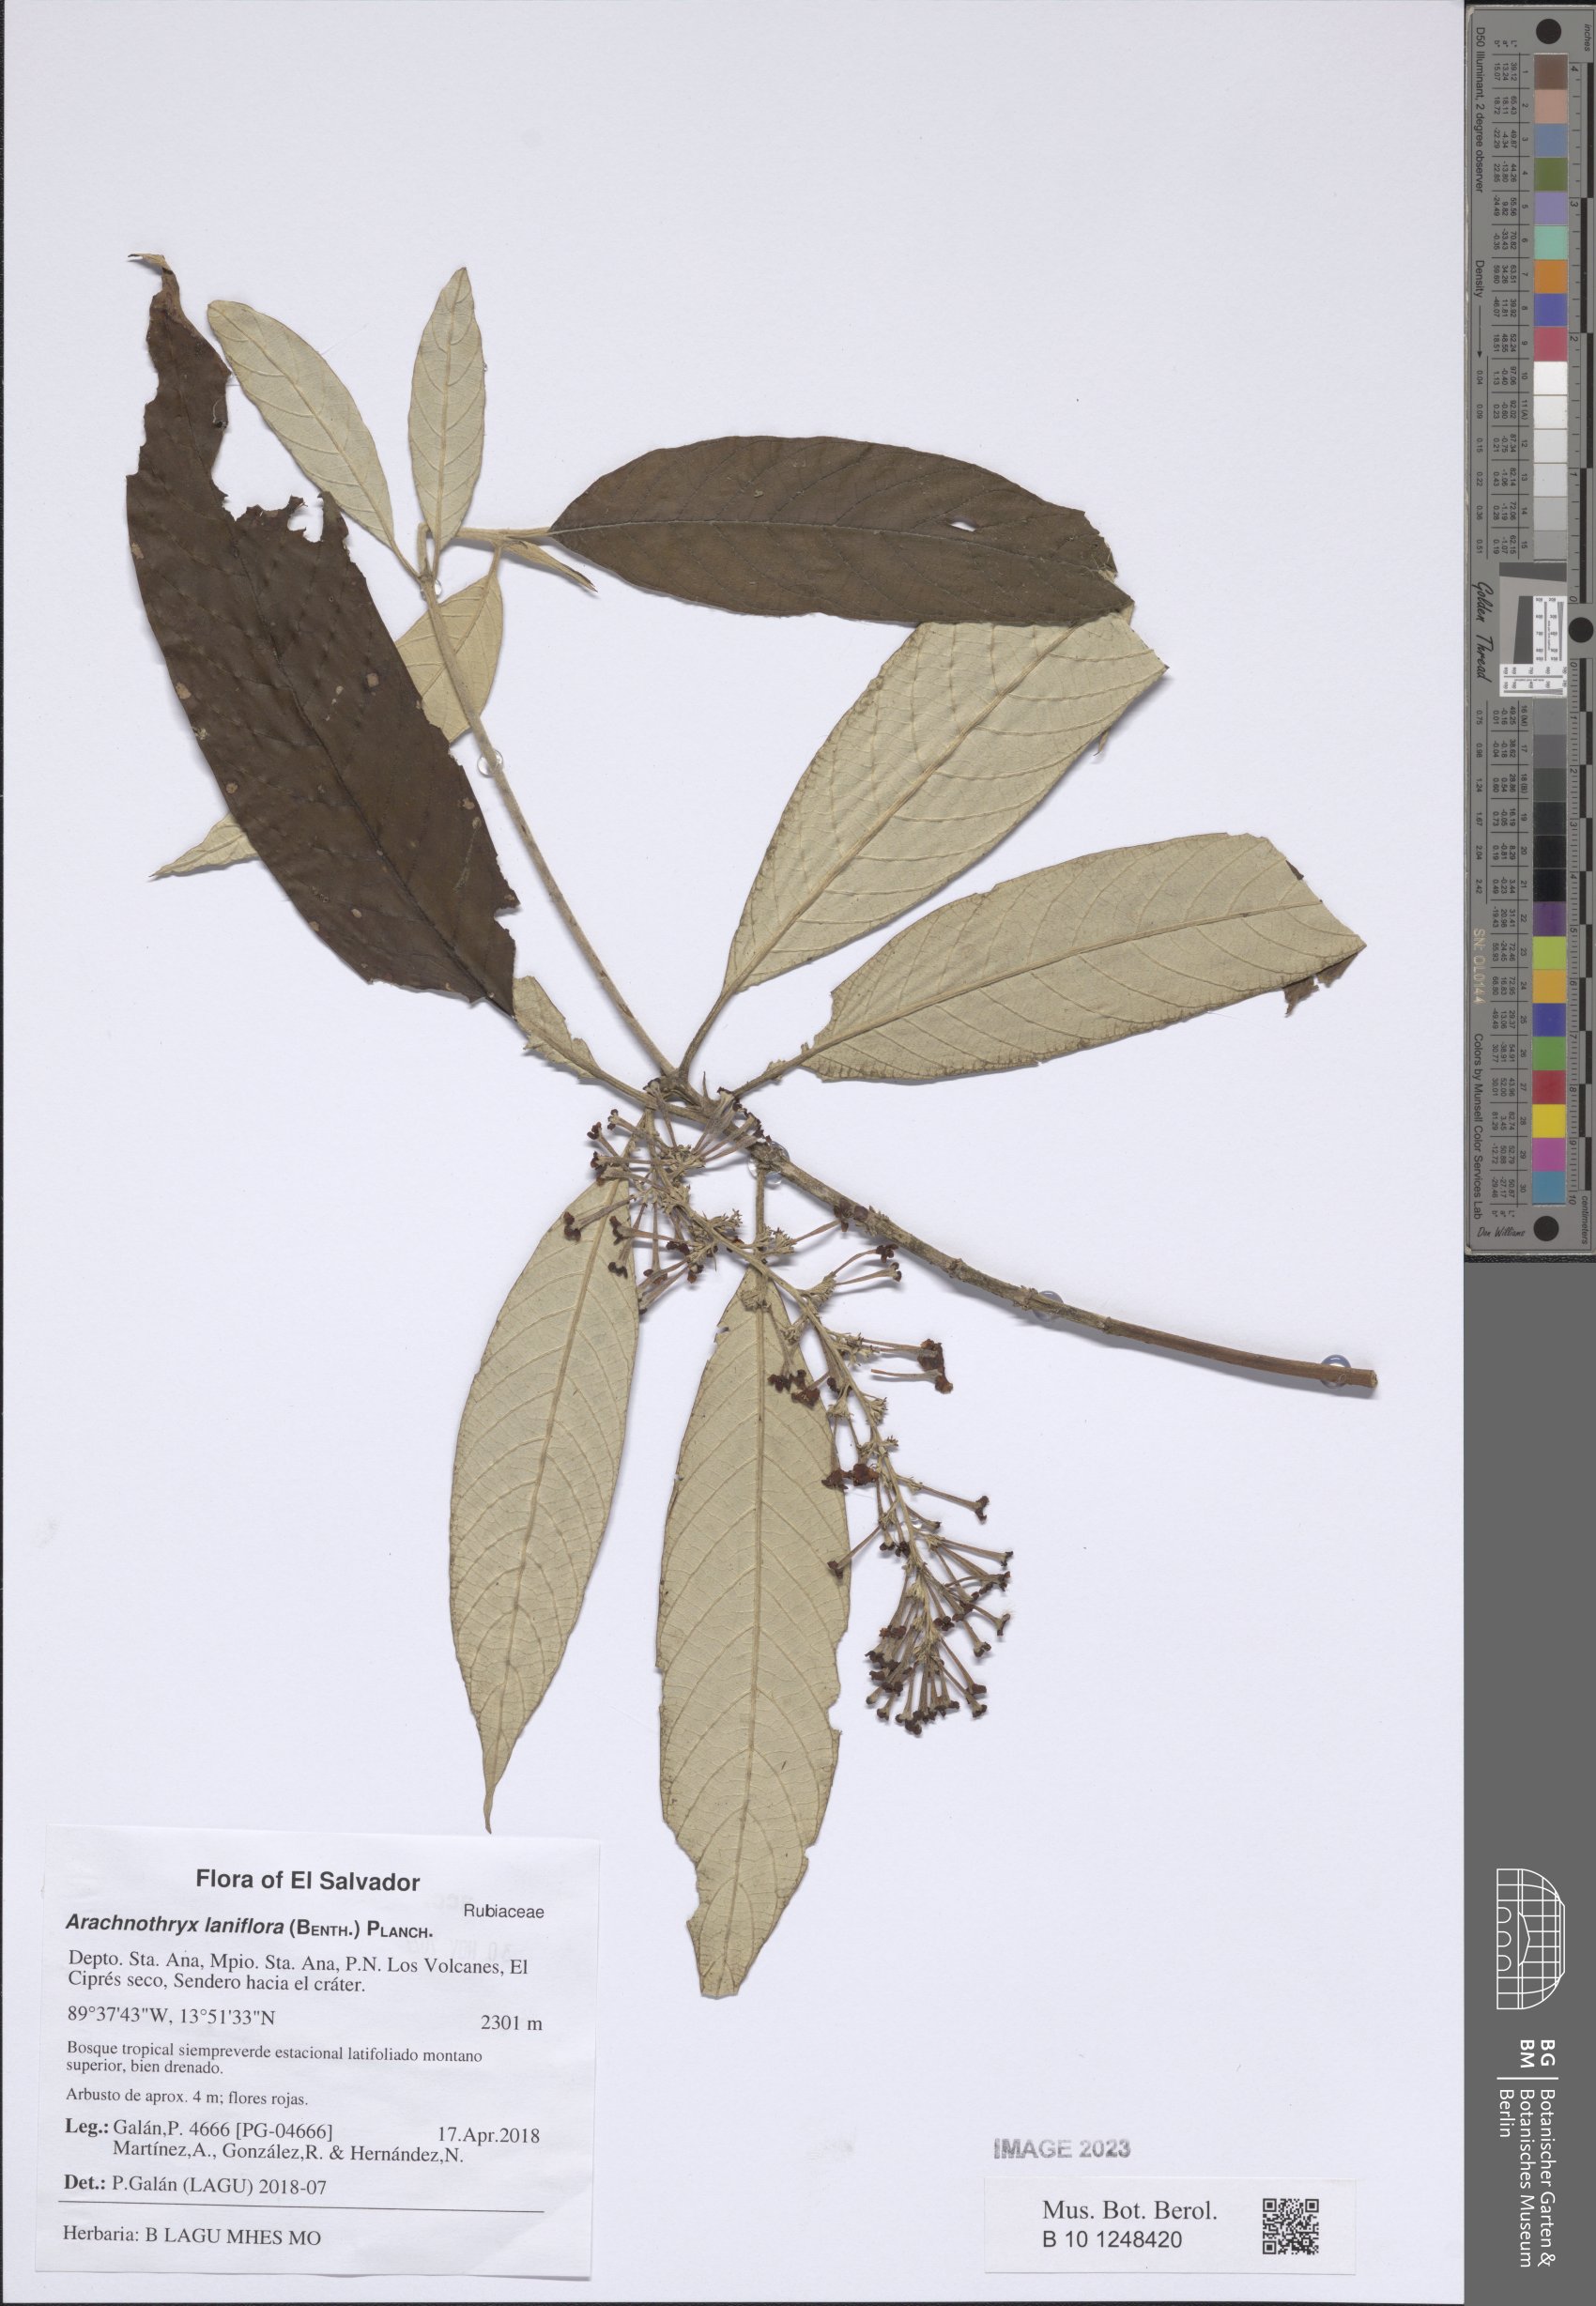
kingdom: Plantae
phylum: Tracheophyta
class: Magnoliopsida
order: Gentianales
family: Rubiaceae
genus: Arachnothryx
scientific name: Arachnothryx laniflora
